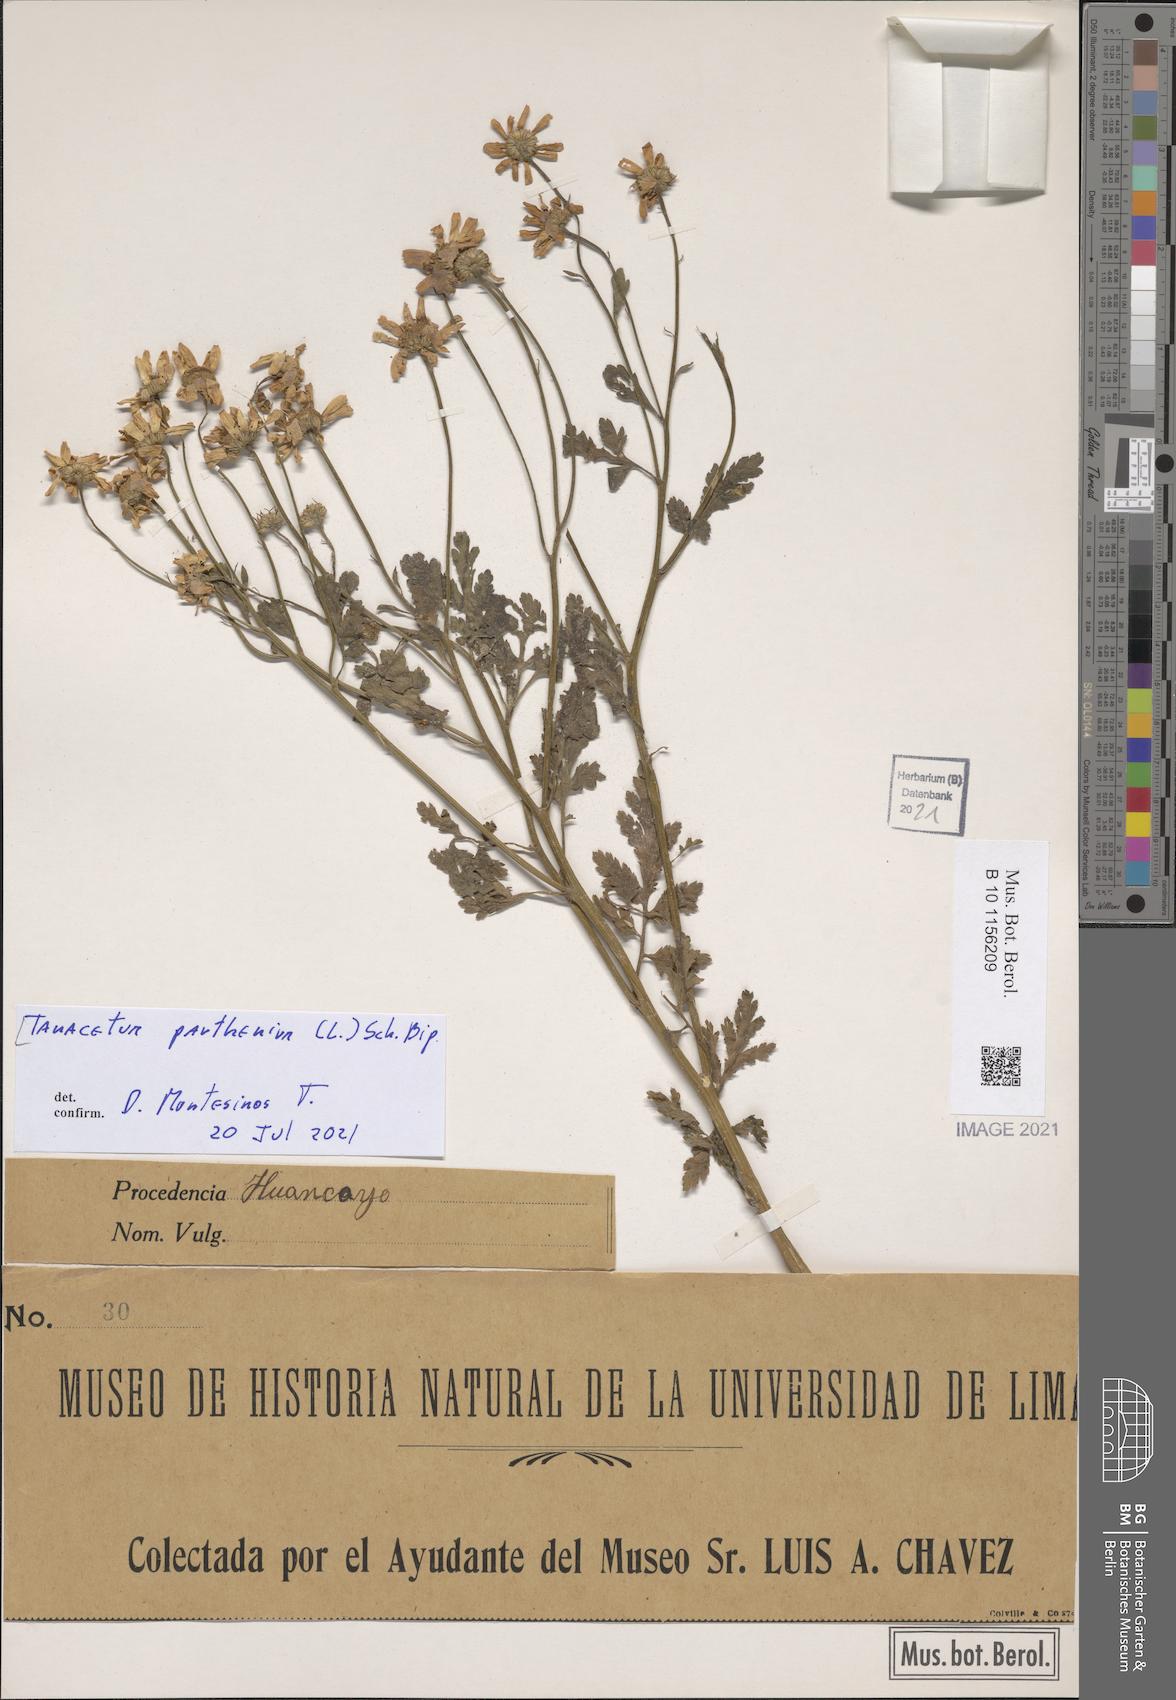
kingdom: Plantae
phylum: Tracheophyta
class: Magnoliopsida
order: Asterales
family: Asteraceae
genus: Tanacetum
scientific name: Tanacetum parthenium
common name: Feverfew
